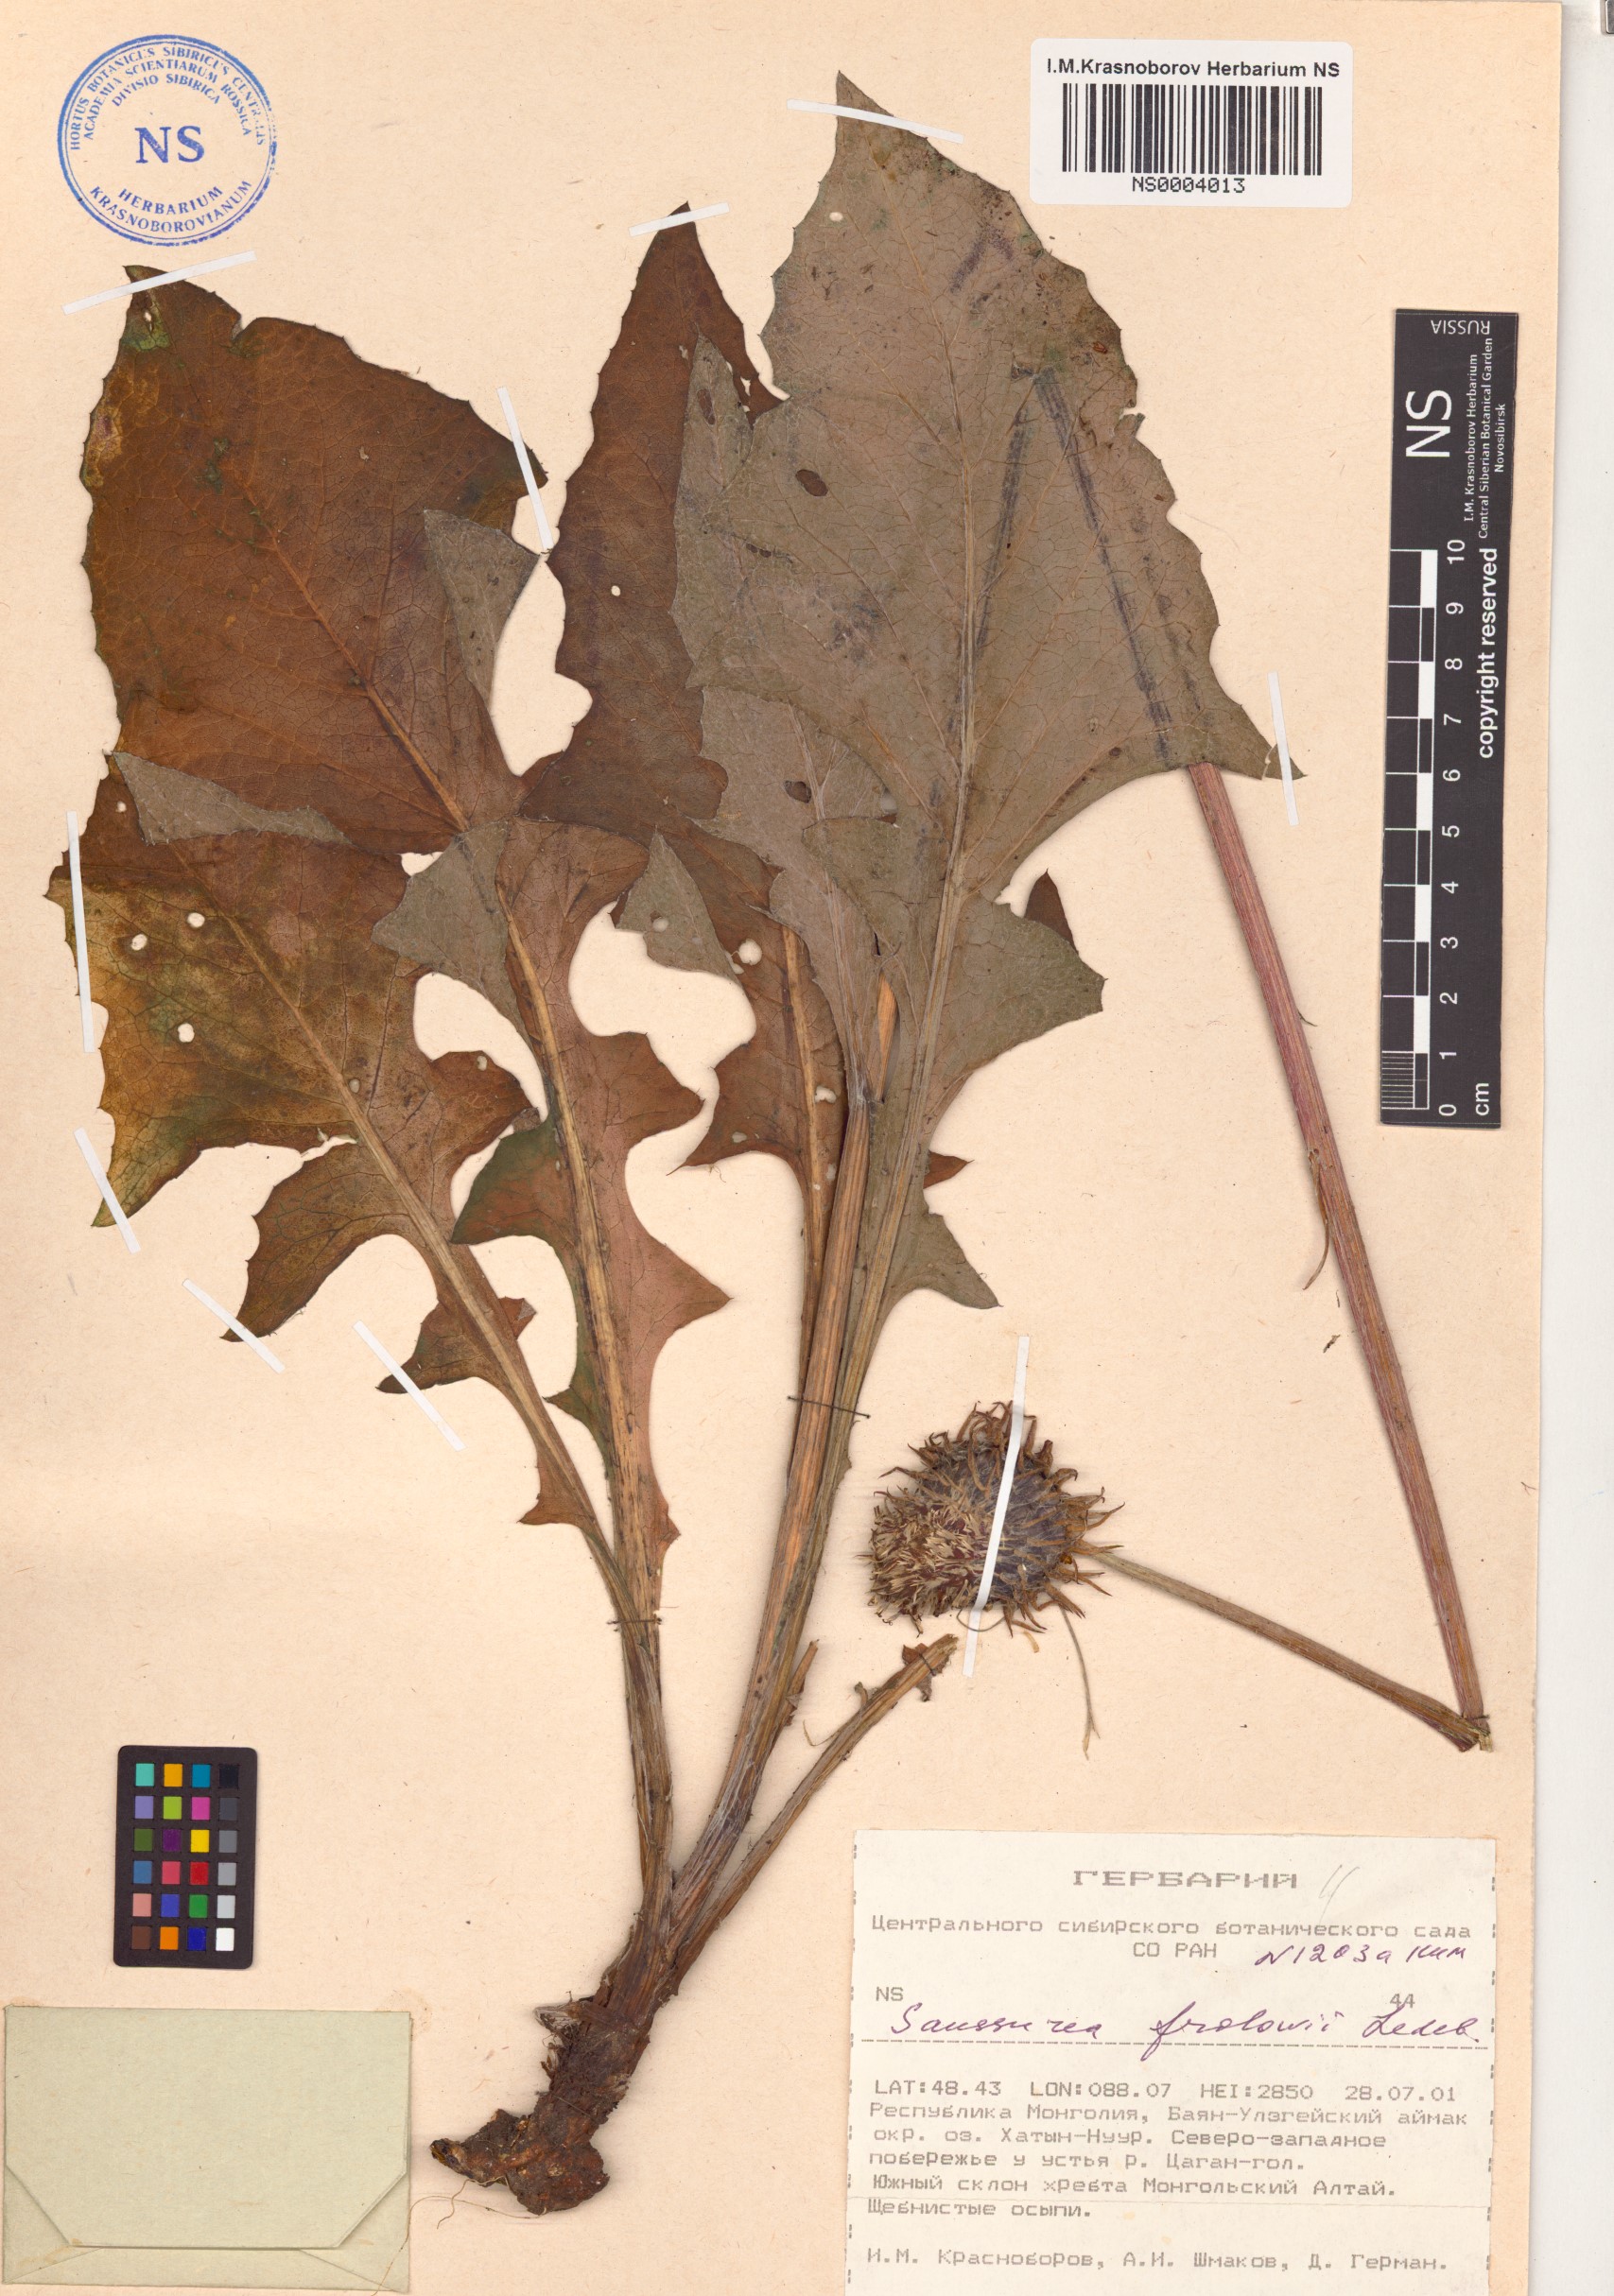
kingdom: Plantae
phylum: Tracheophyta
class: Magnoliopsida
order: Asterales
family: Asteraceae
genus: Dolomiaea
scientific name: Dolomiaea frolowii
